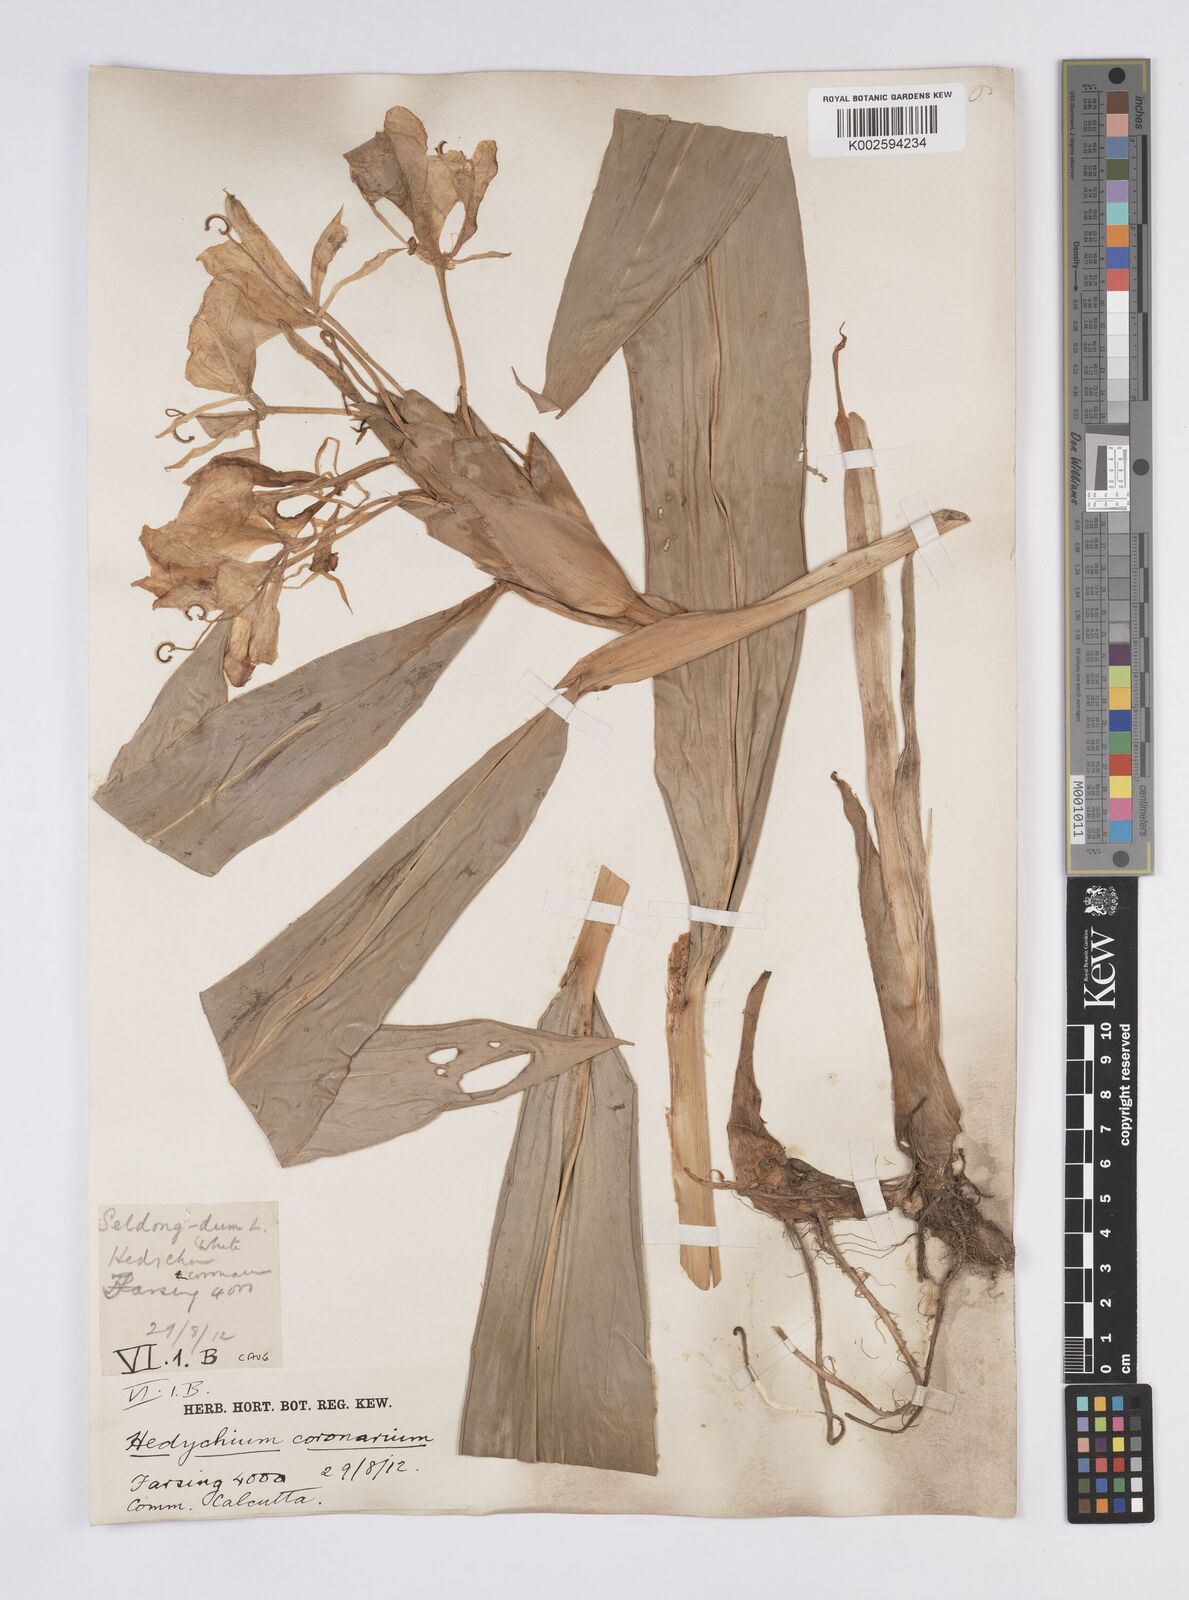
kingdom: Plantae
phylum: Tracheophyta
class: Liliopsida
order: Zingiberales
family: Zingiberaceae
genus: Hedychium
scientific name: Hedychium
